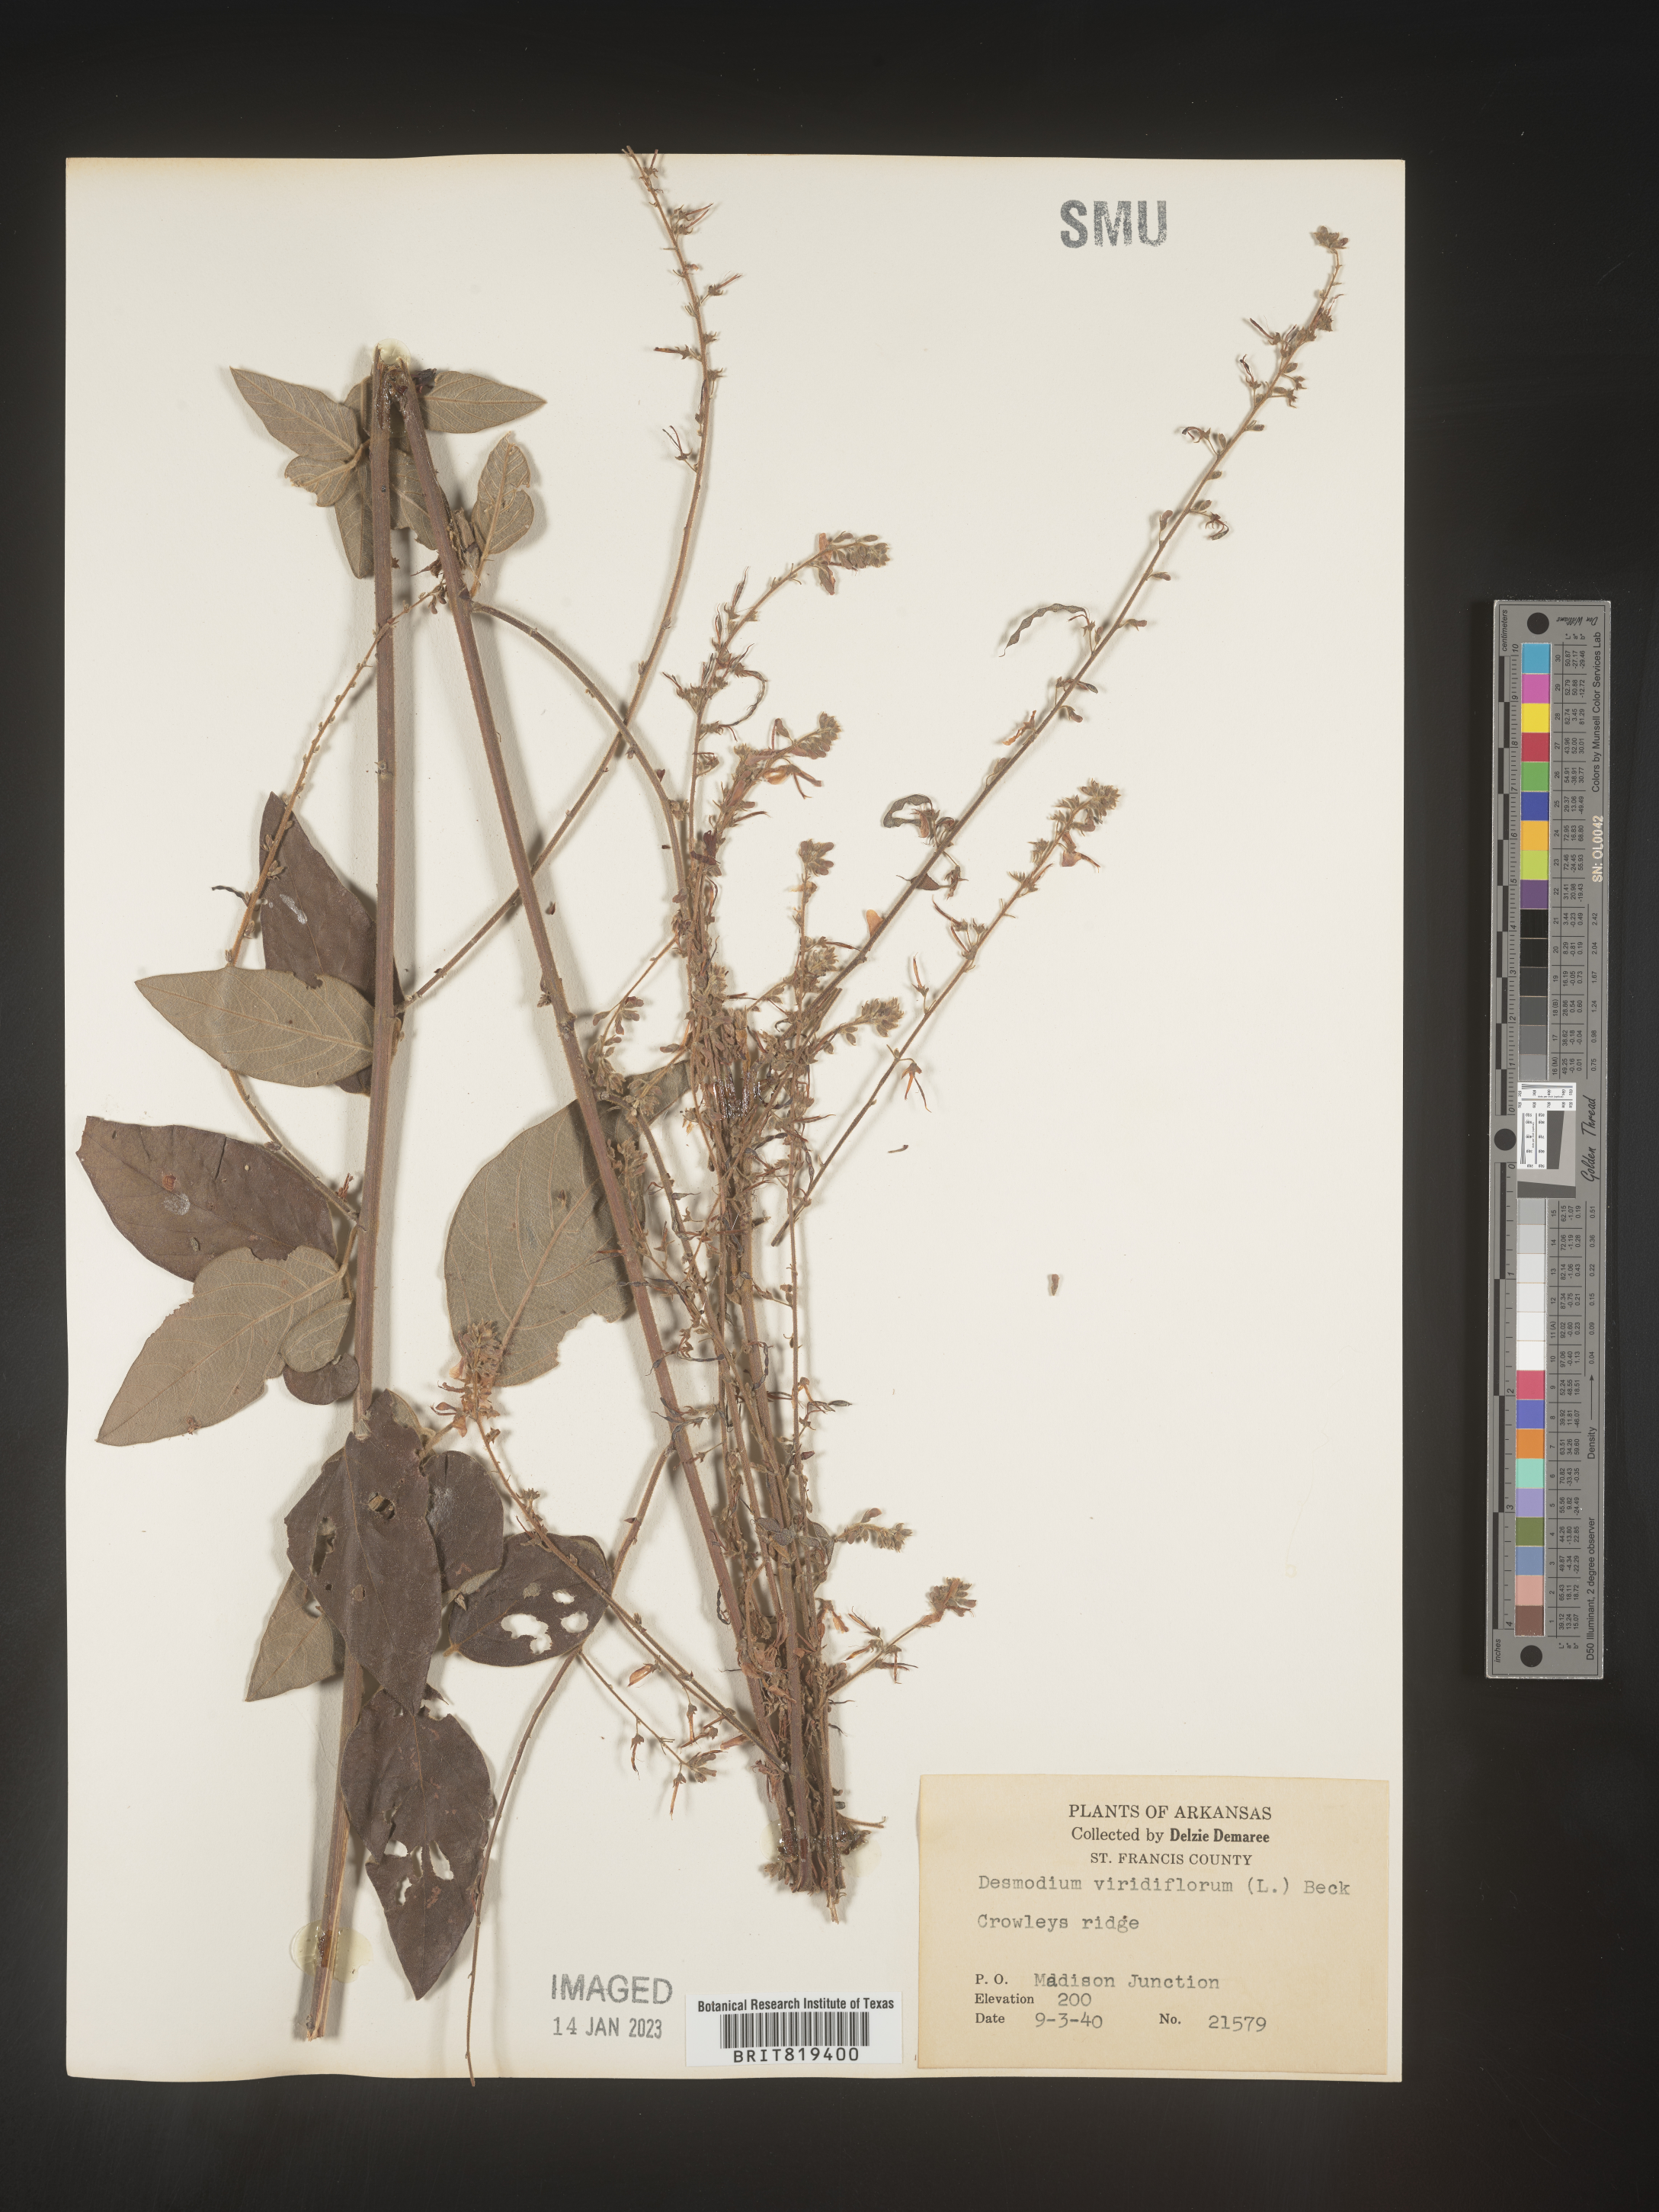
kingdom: Plantae
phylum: Tracheophyta
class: Magnoliopsida
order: Fabales
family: Fabaceae
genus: Desmodium
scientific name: Desmodium viridiflorum
